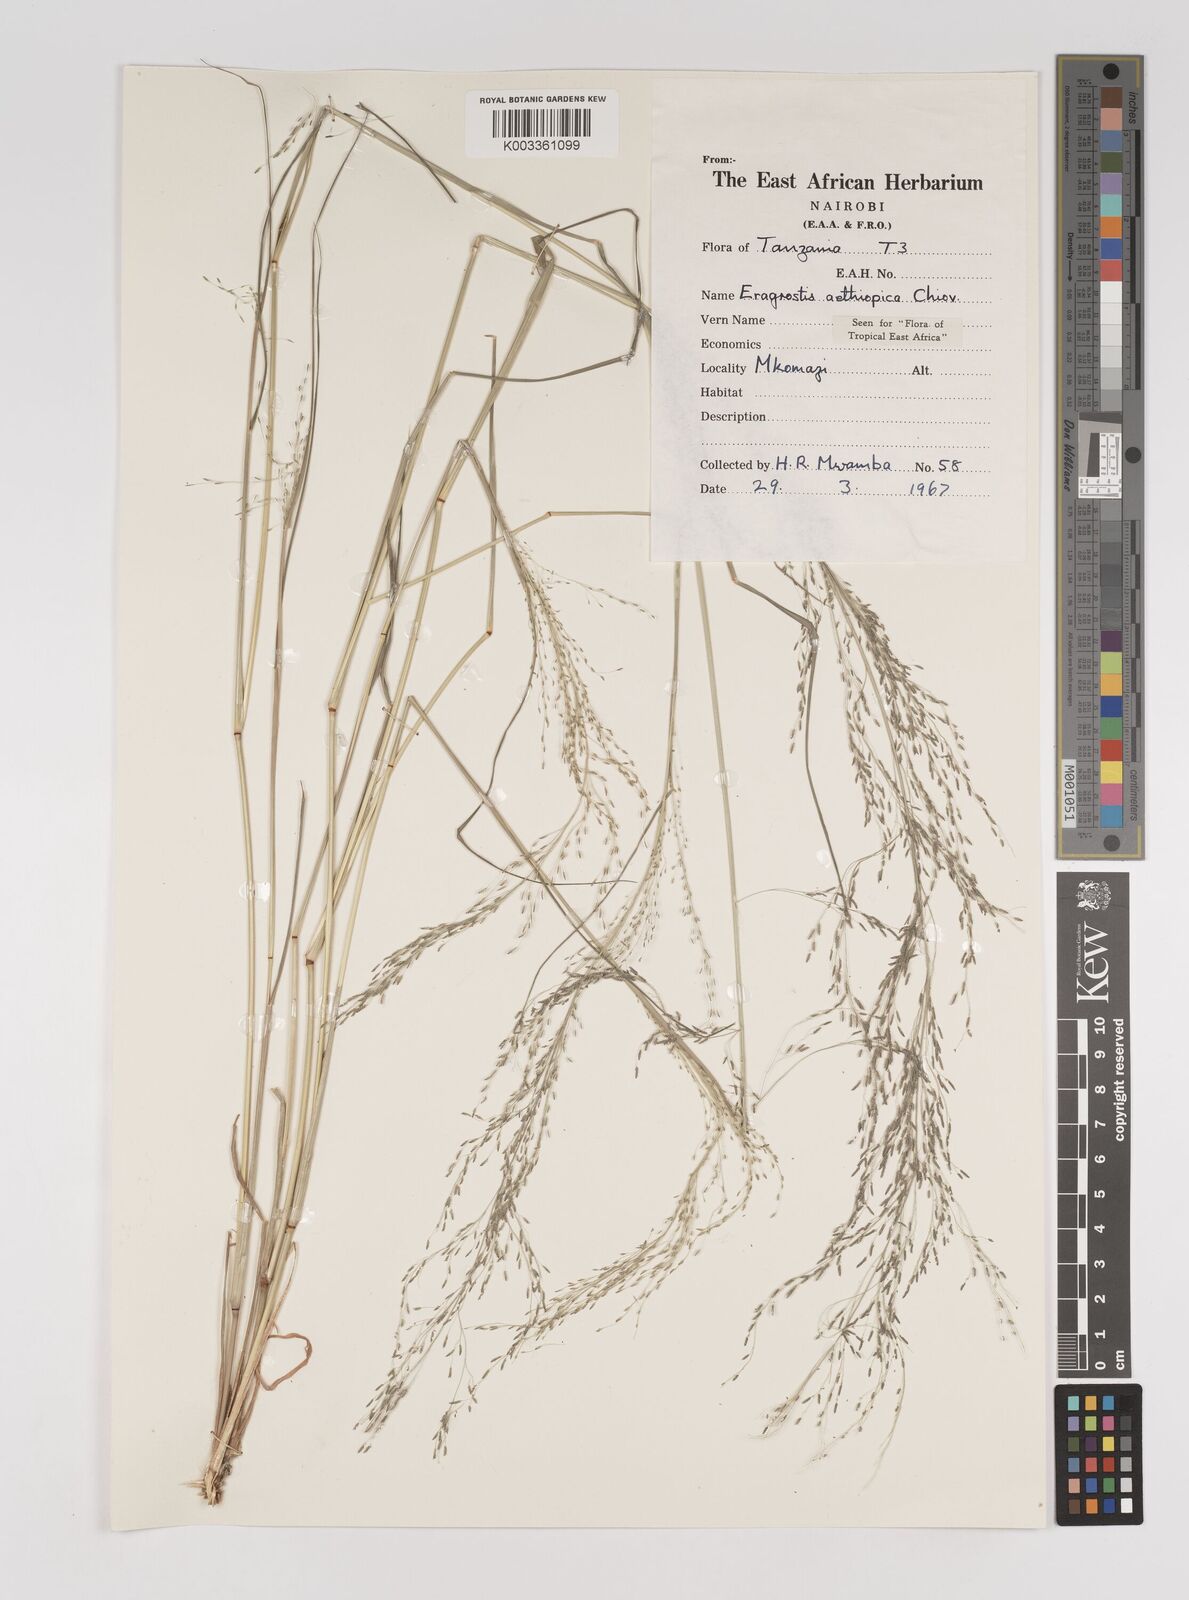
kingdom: Plantae
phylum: Tracheophyta
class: Liliopsida
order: Poales
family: Poaceae
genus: Eragrostis
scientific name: Eragrostis aethiopica
